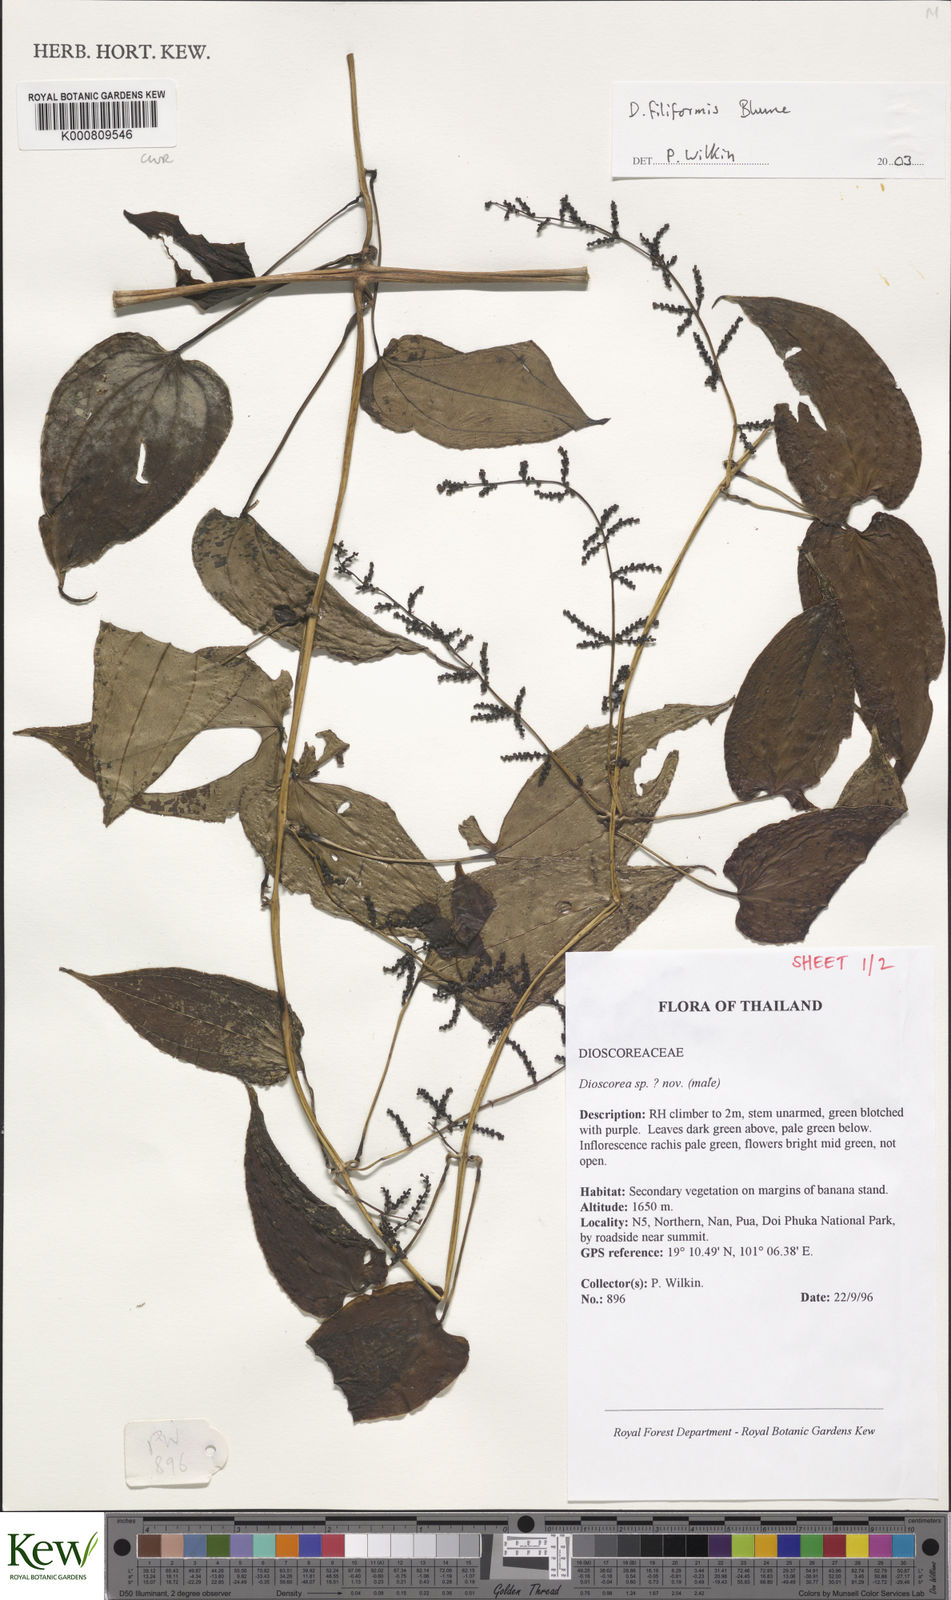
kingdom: Plantae
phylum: Tracheophyta
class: Liliopsida
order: Dioscoreales
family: Dioscoreaceae
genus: Dioscorea
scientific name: Dioscorea filiformis
